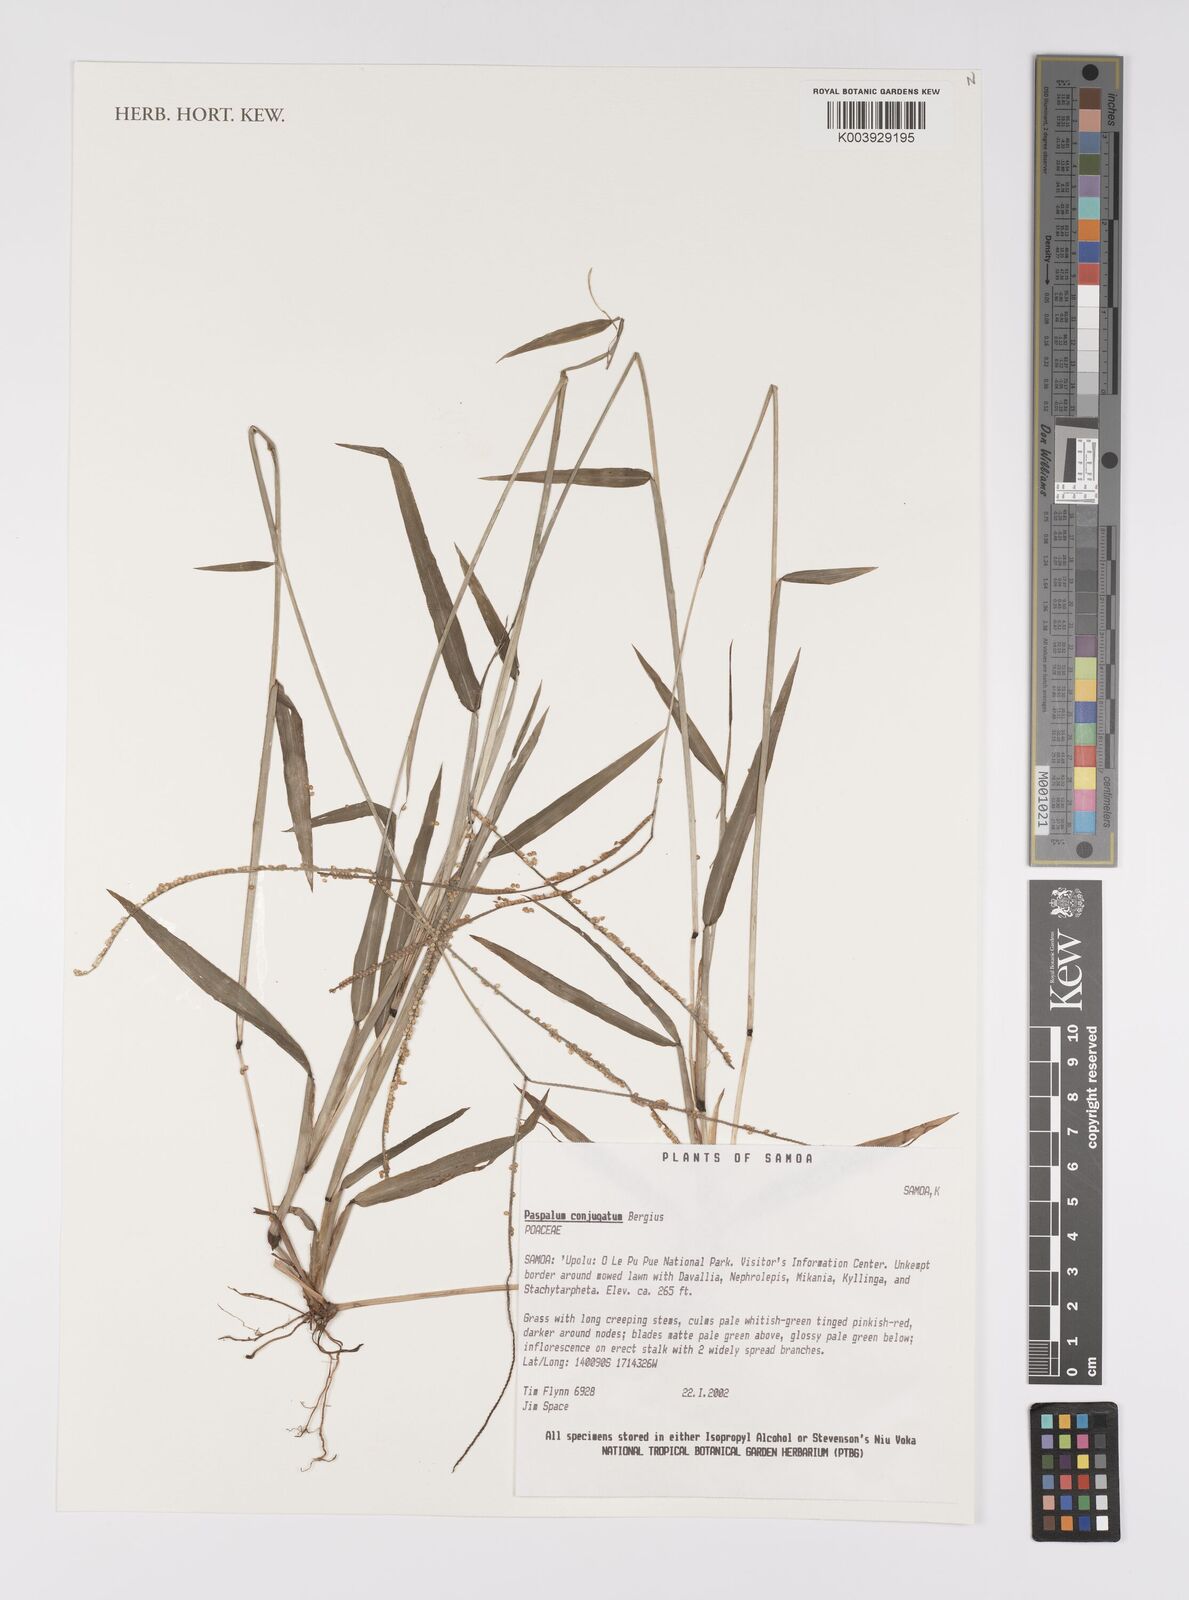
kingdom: Plantae
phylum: Tracheophyta
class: Liliopsida
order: Poales
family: Poaceae
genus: Paspalum
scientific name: Paspalum conjugatum
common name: Hilograss
